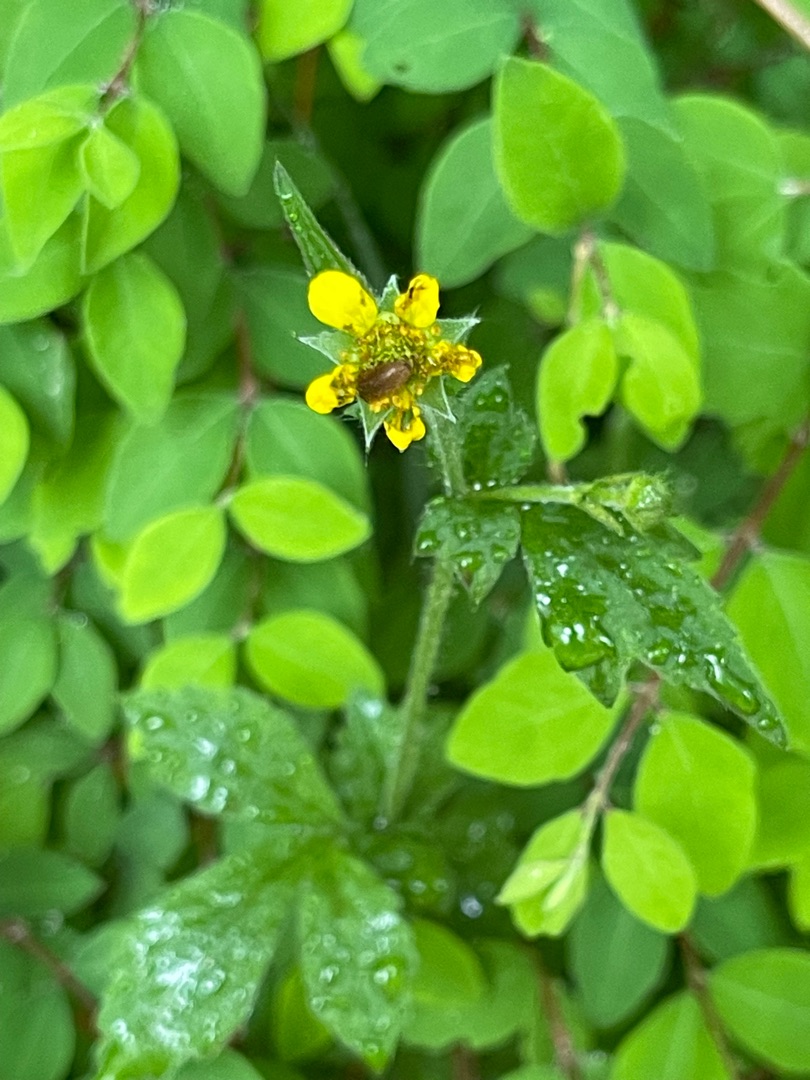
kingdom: Plantae
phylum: Tracheophyta
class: Magnoliopsida
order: Rosales
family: Rosaceae
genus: Geum
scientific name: Geum urbanum
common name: Feber-nellikerod
